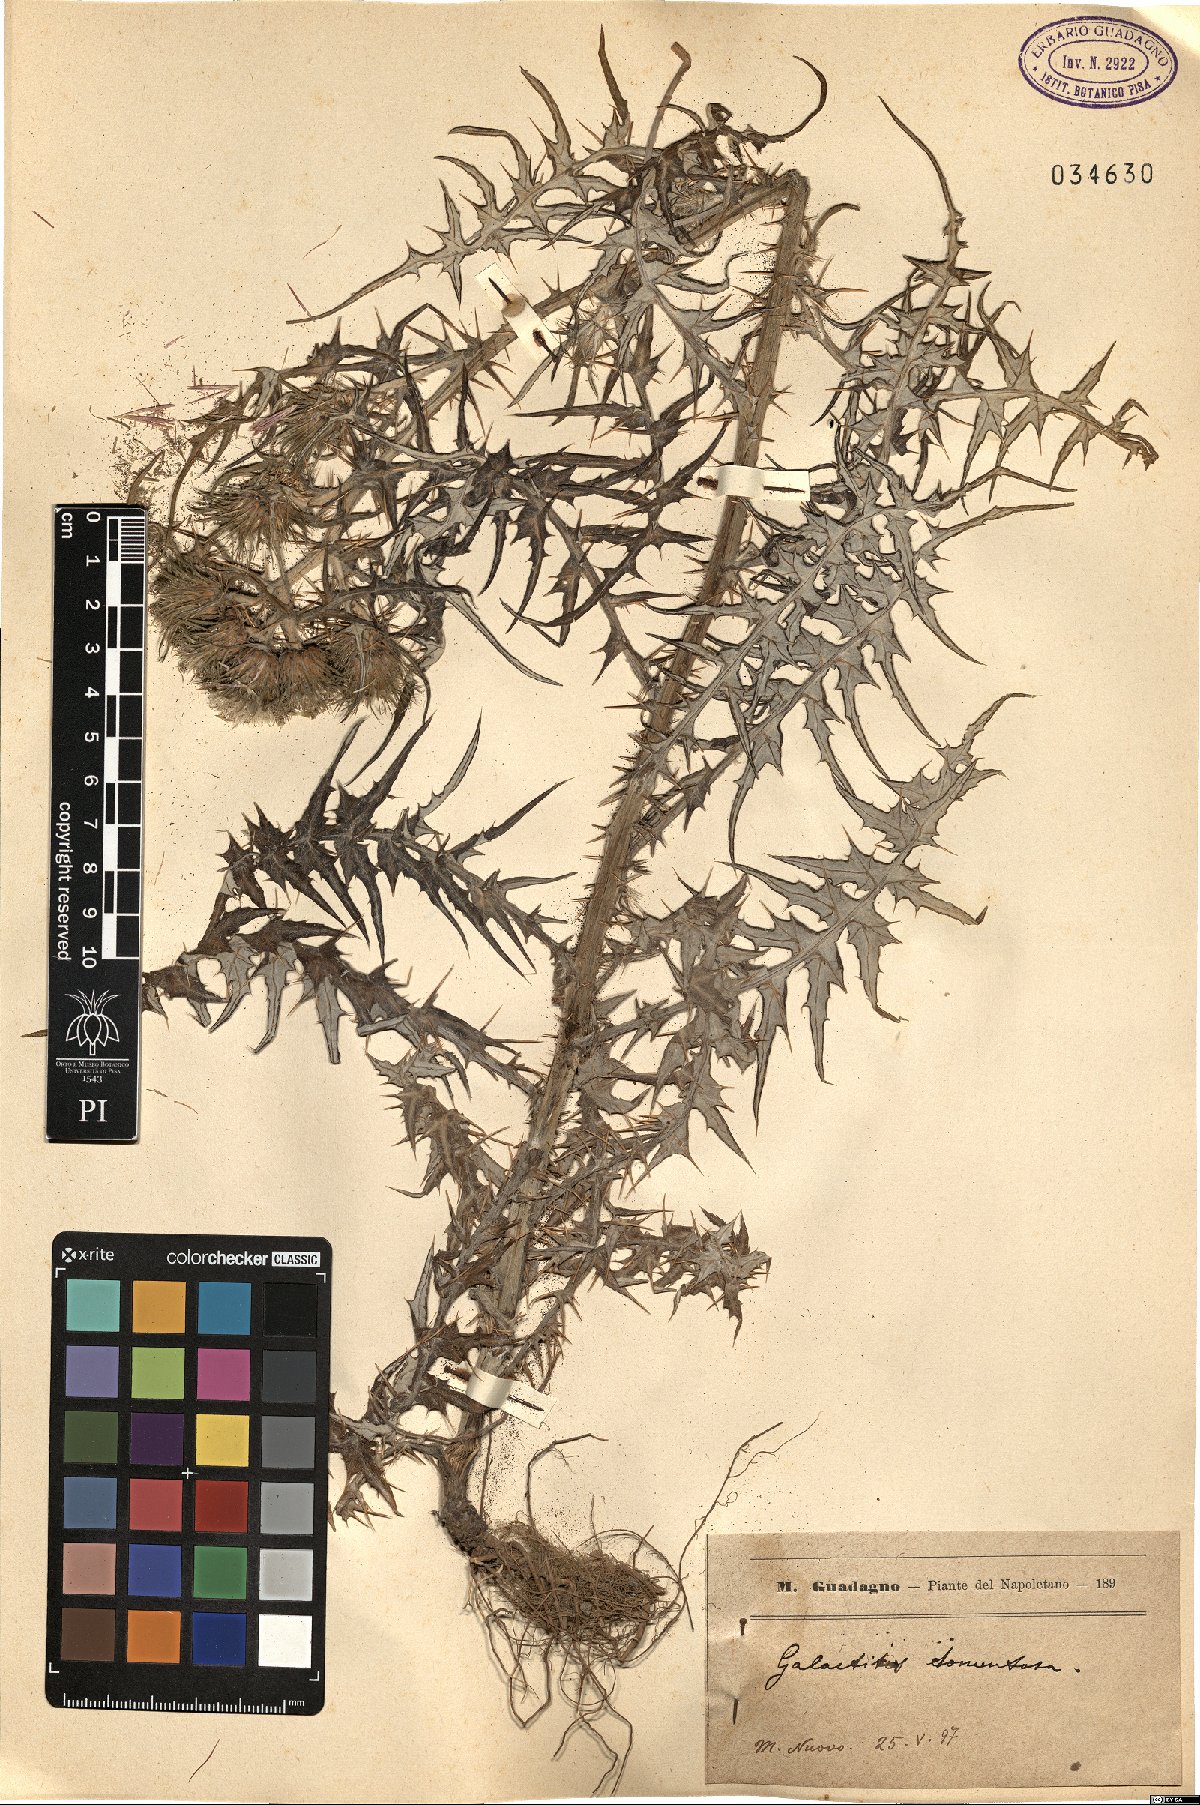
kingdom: Plantae
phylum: Tracheophyta
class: Magnoliopsida
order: Asterales
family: Asteraceae
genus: Galactites
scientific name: Galactites tomentosa
